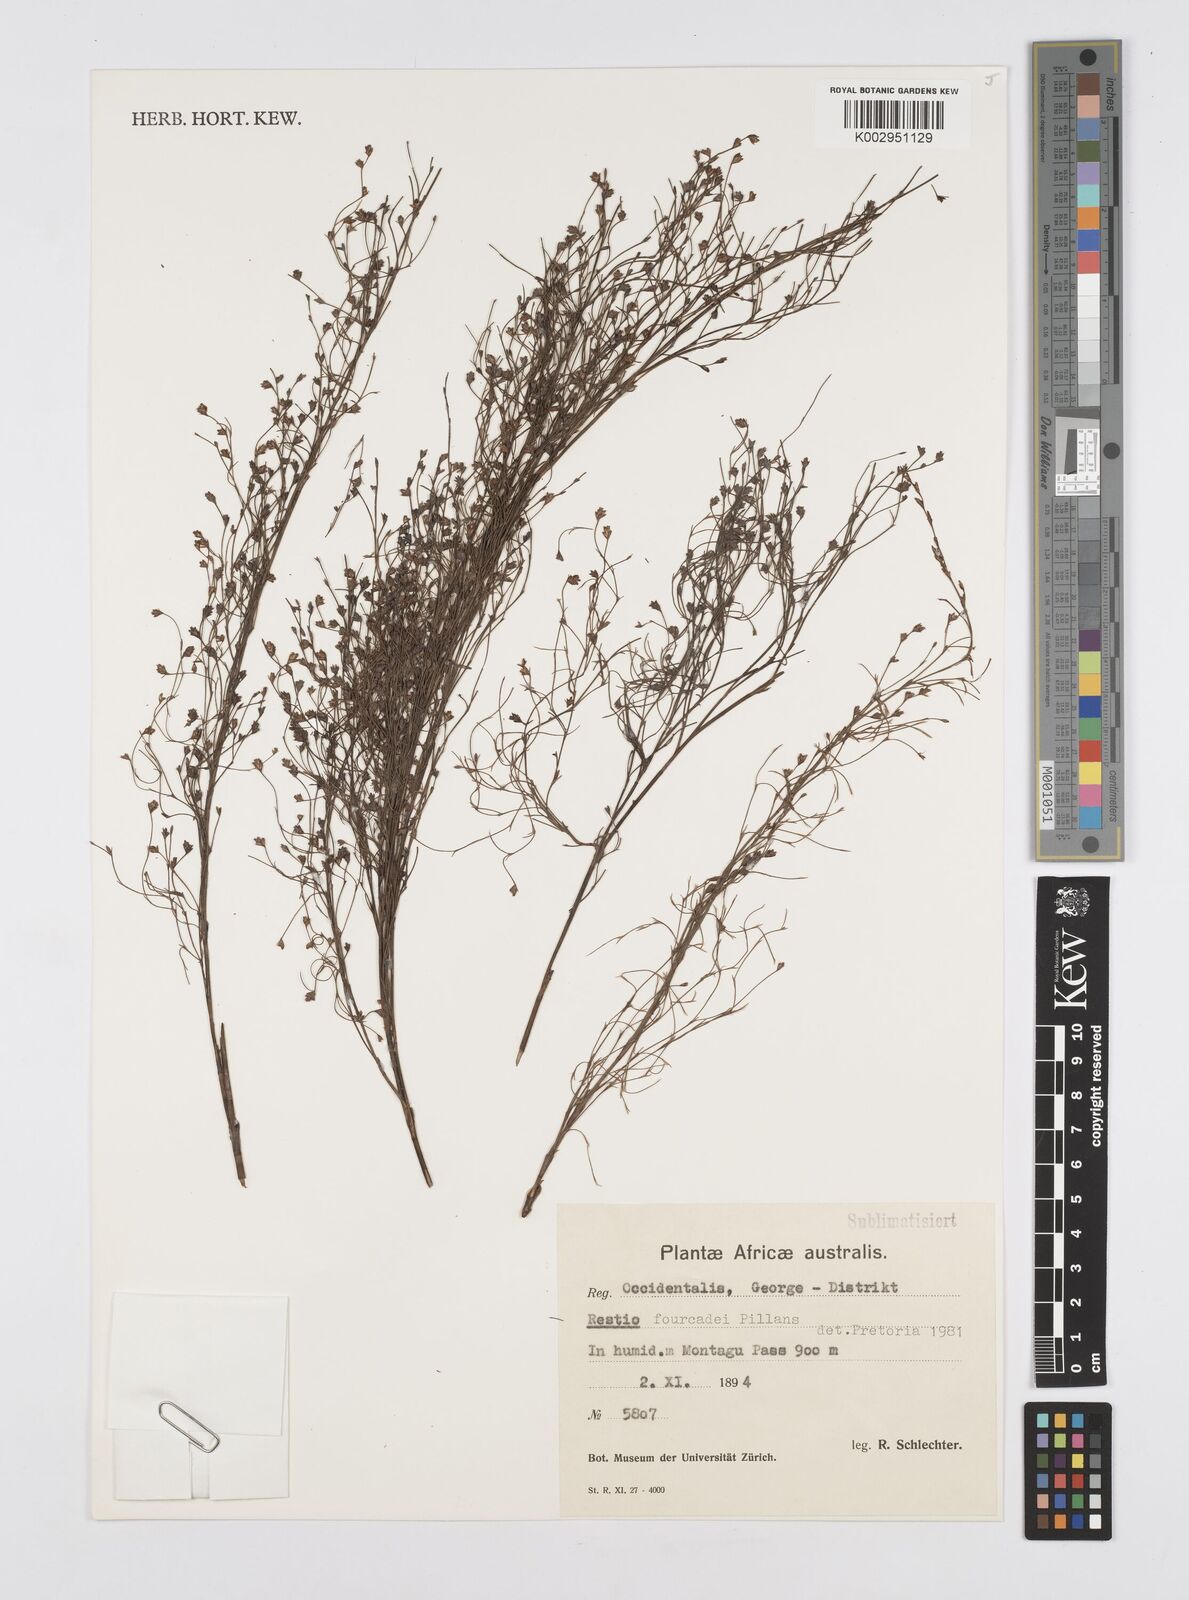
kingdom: Plantae
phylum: Tracheophyta
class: Liliopsida
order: Poales
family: Restionaceae
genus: Restio
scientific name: Restio fourcadei
